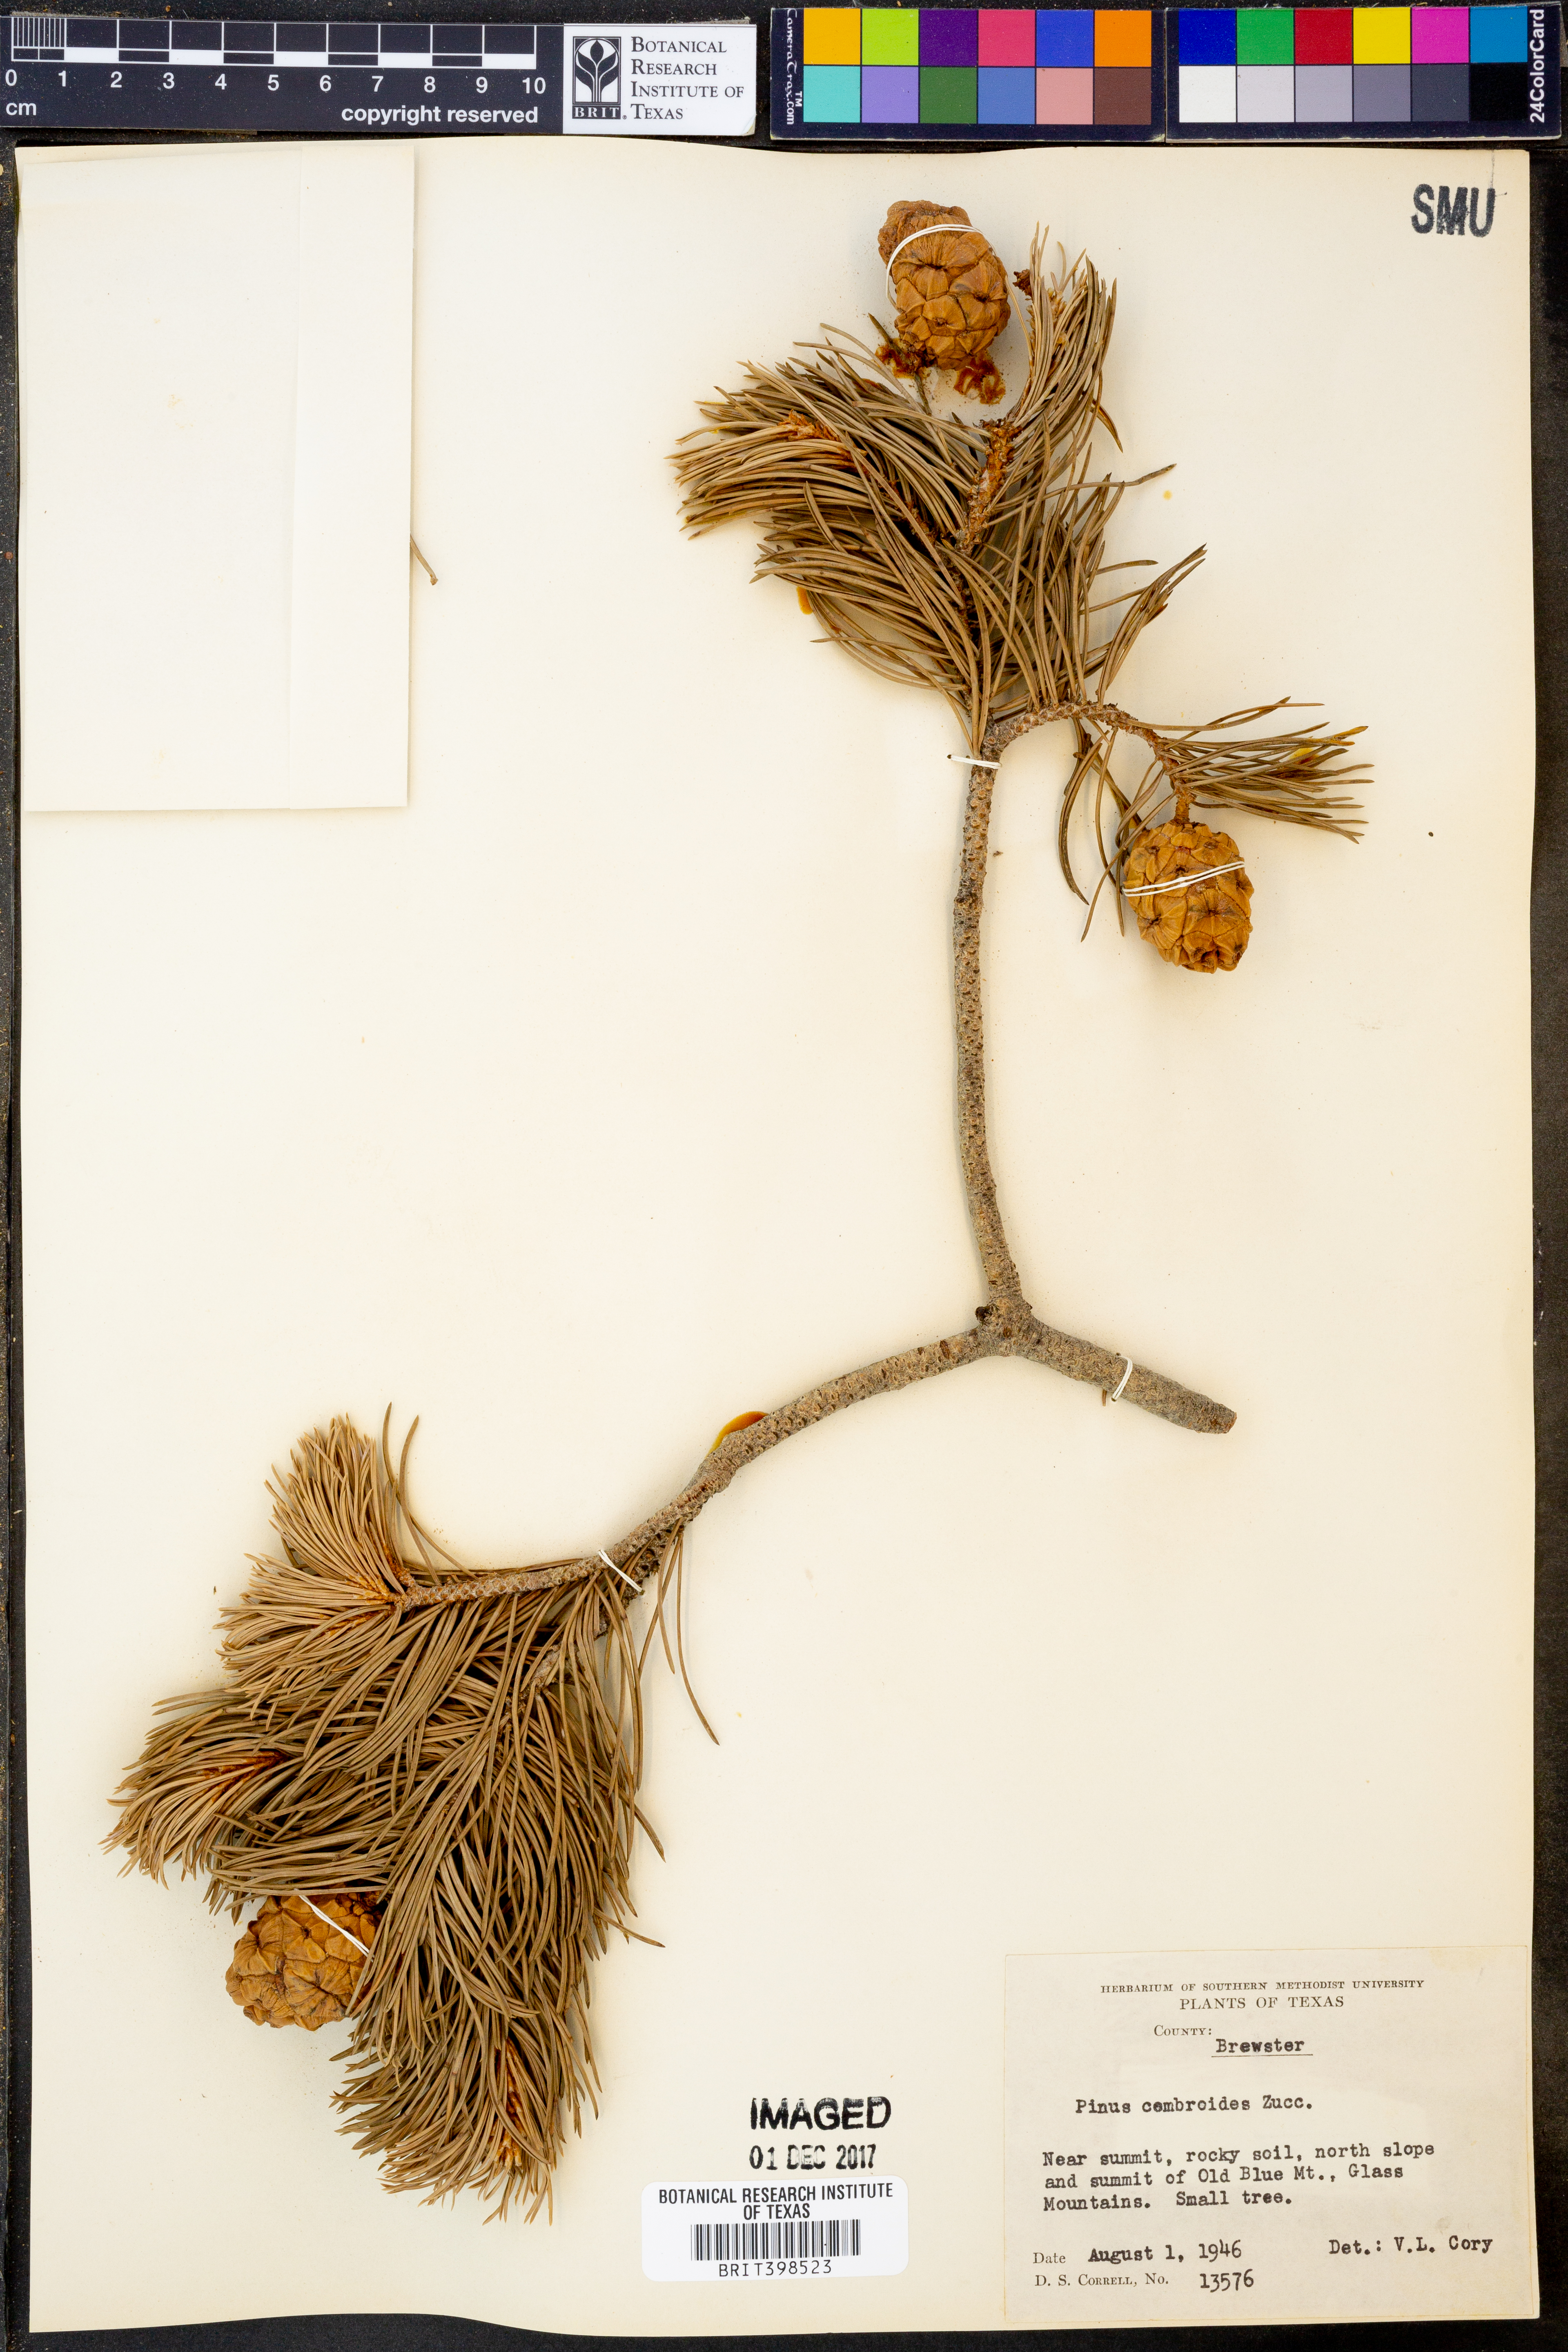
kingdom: Plantae
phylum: Tracheophyta
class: Pinopsida
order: Pinales
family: Pinaceae
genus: Pinus
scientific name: Pinus cembroides
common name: Mexican nut pine
